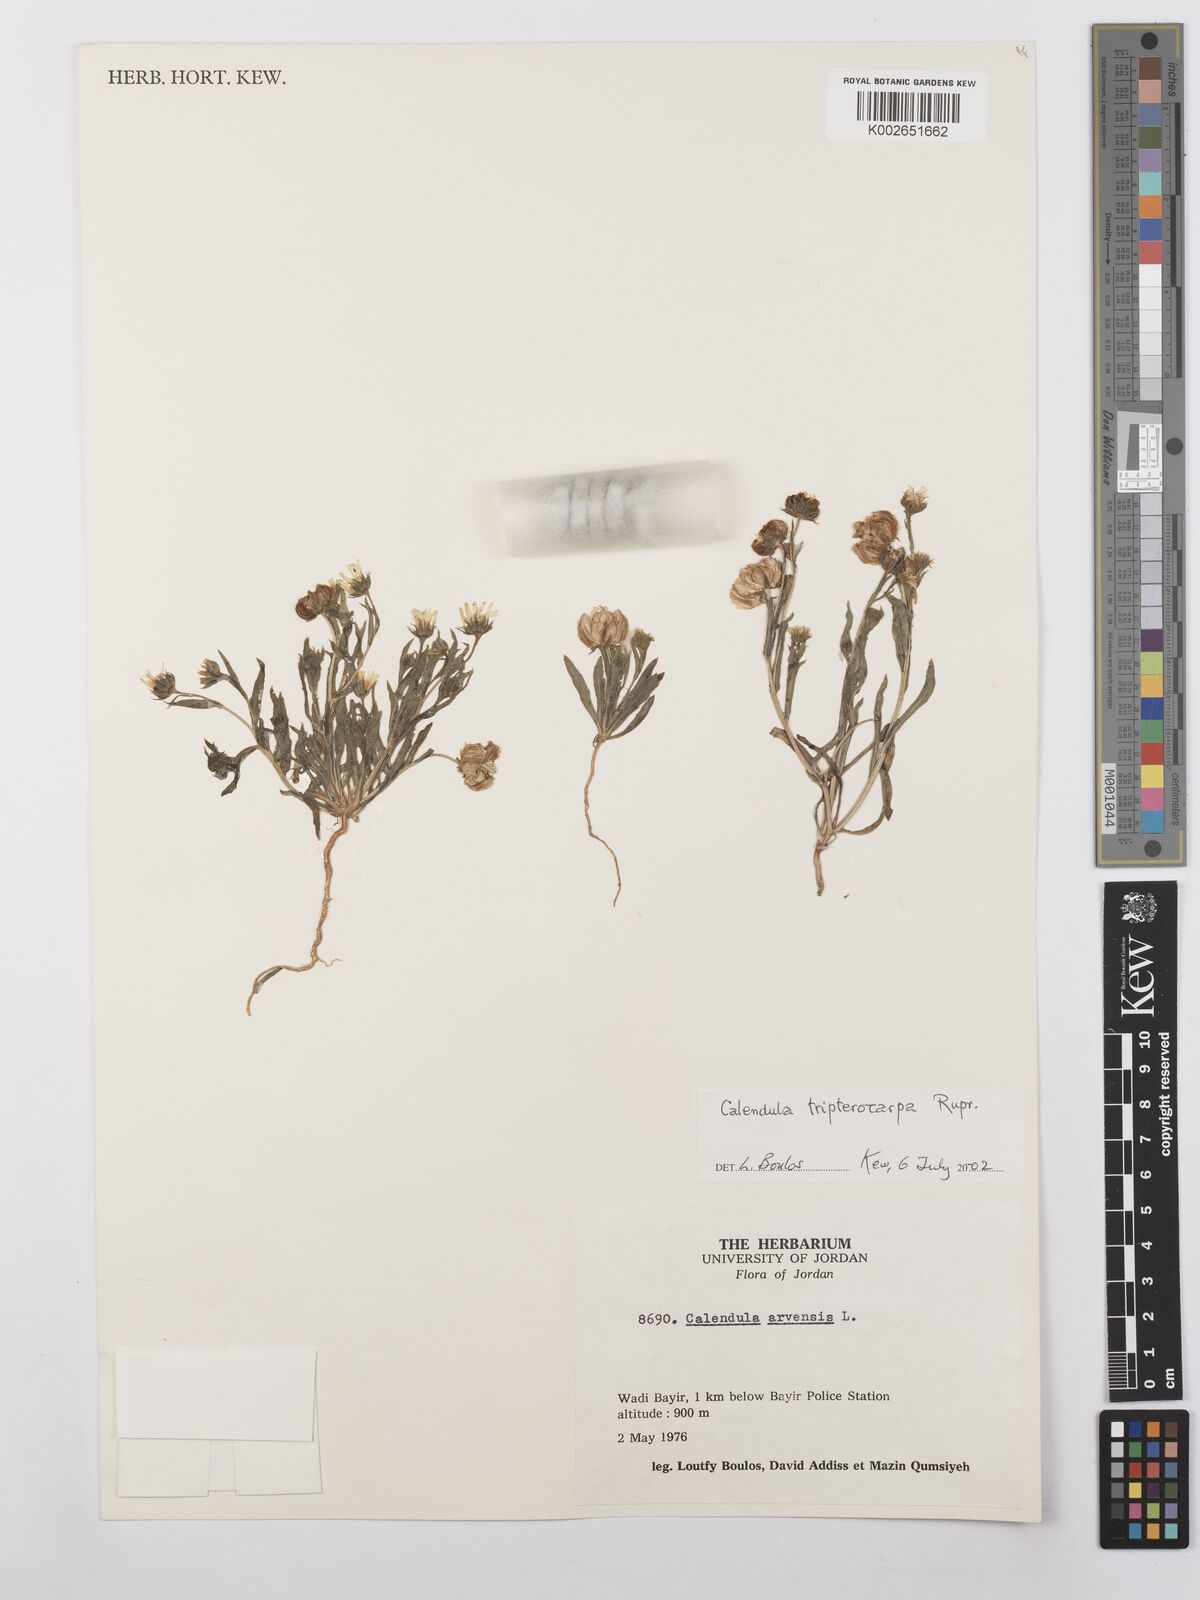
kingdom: Plantae
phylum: Tracheophyta
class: Magnoliopsida
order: Asterales
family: Asteraceae
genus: Calendula
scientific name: Calendula tripterocarpa
